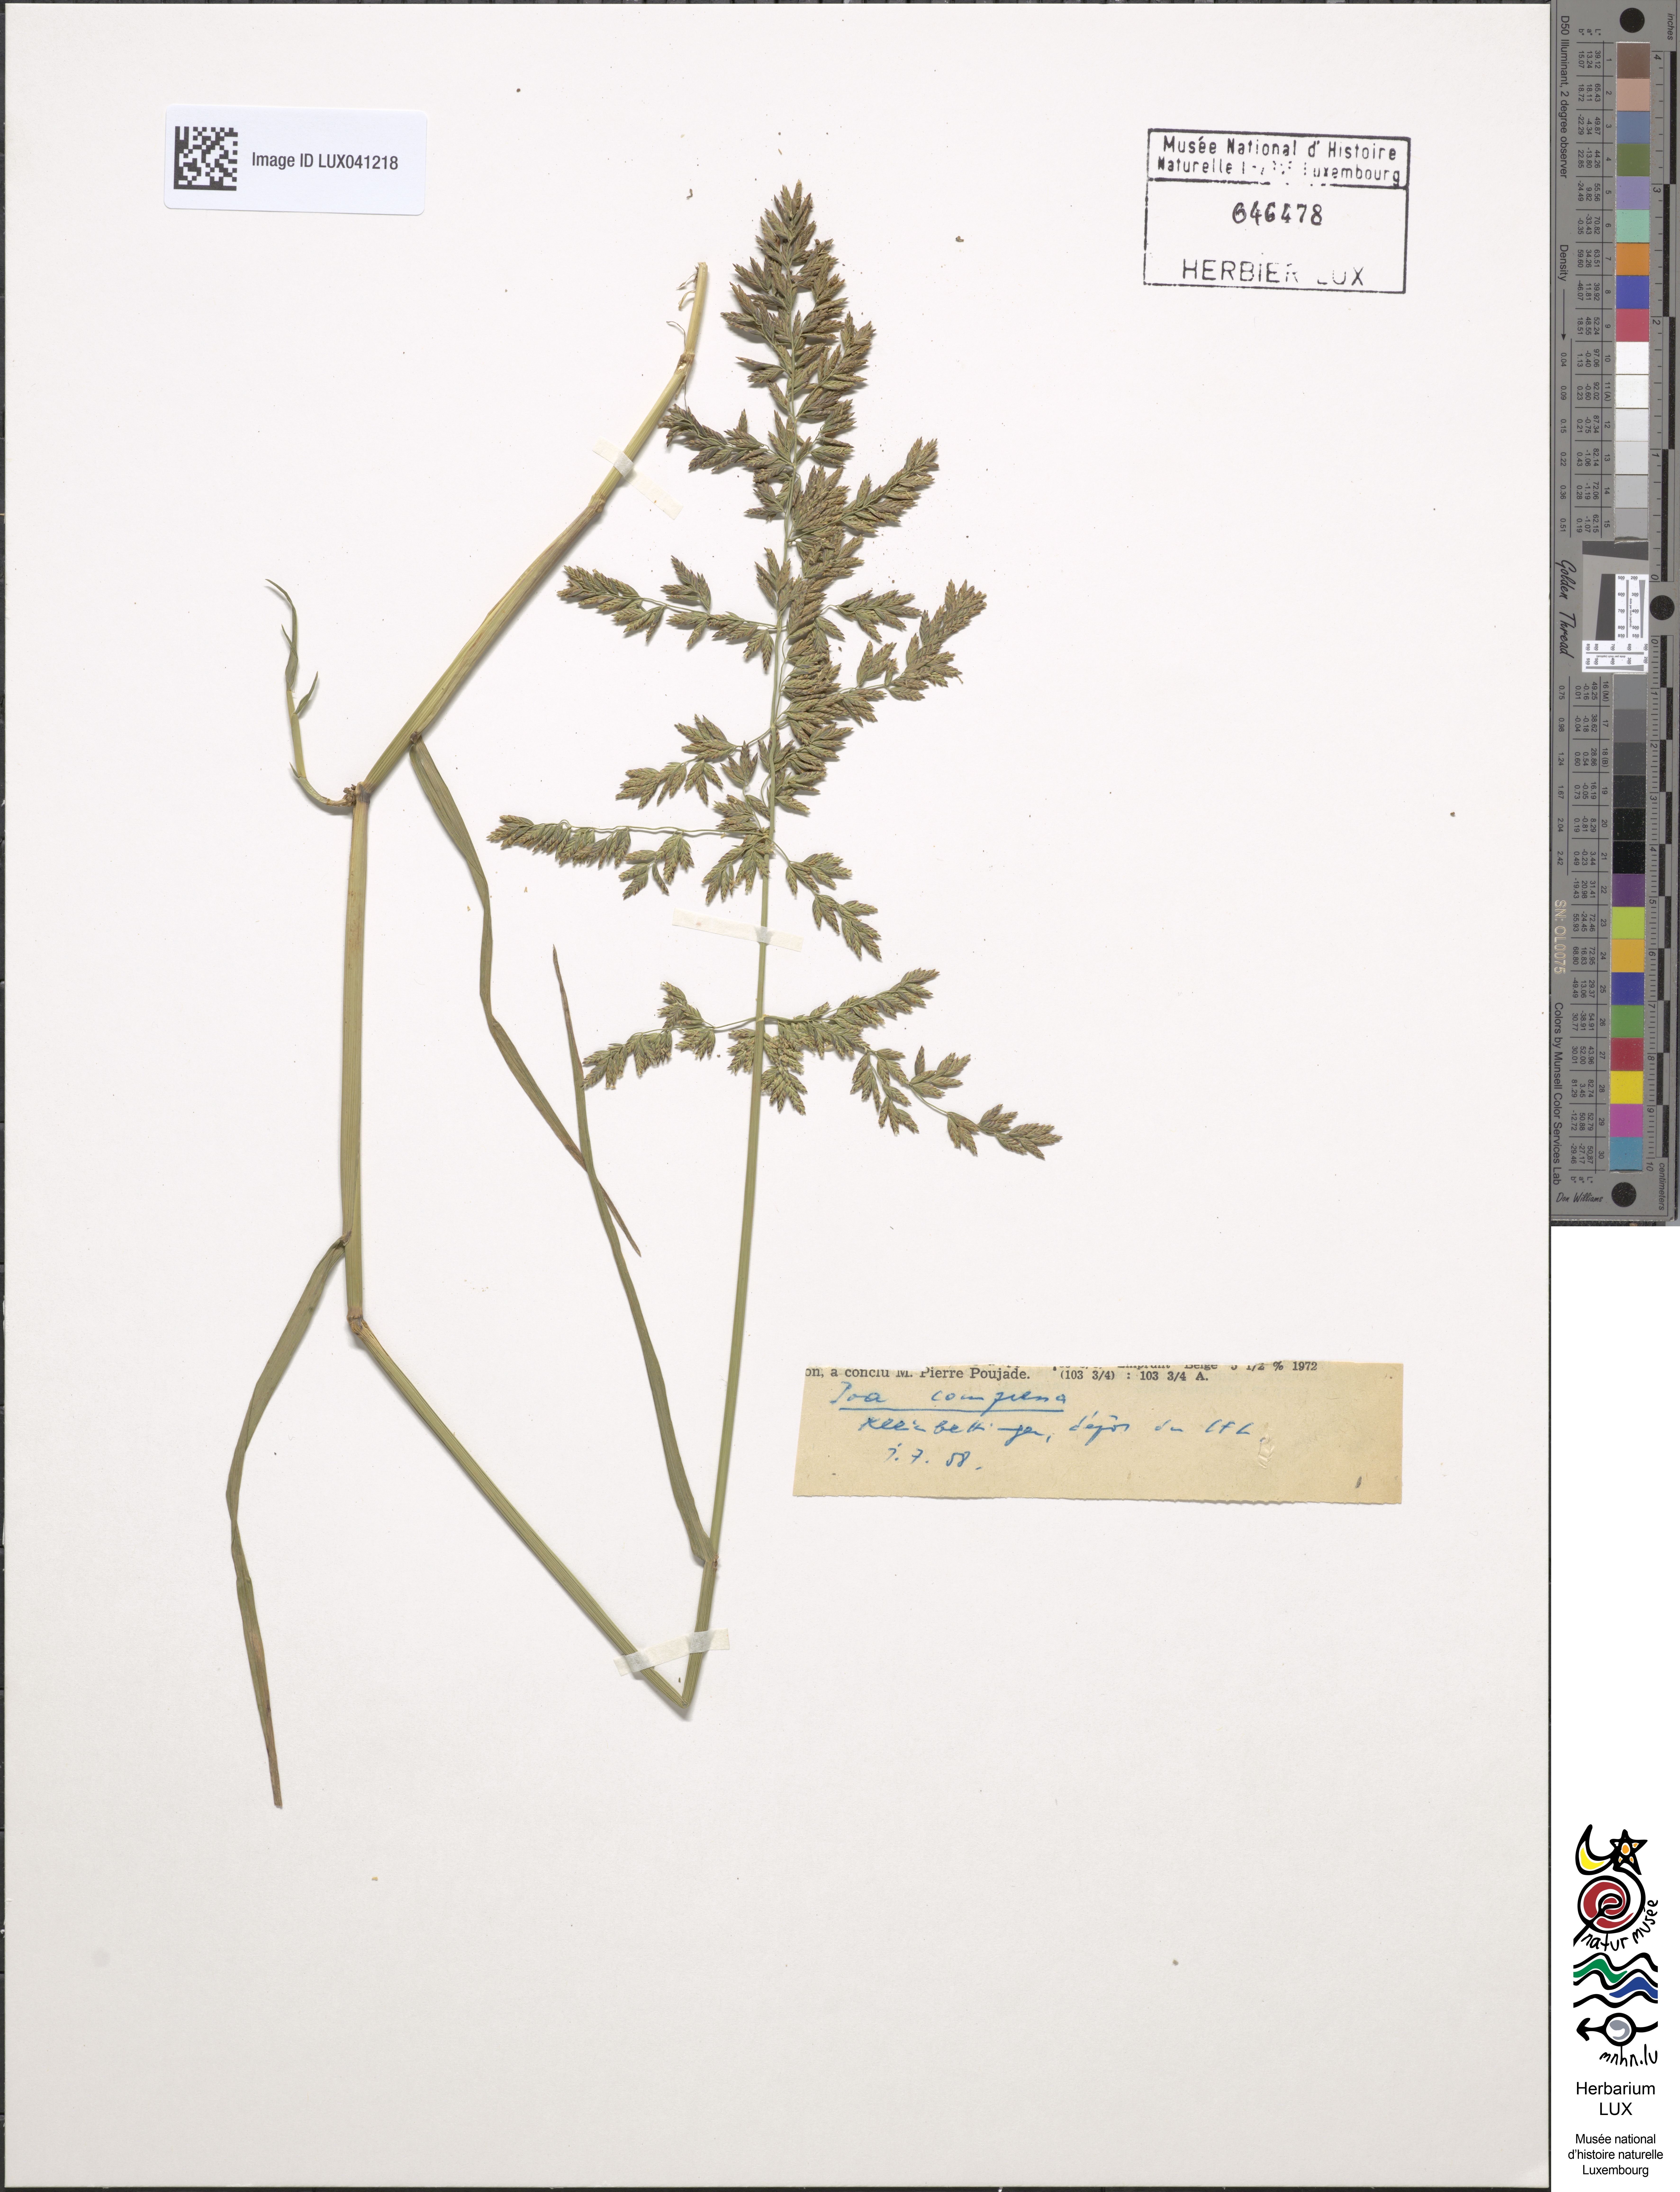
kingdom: Plantae
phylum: Tracheophyta
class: Liliopsida
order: Poales
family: Poaceae
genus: Poa
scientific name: Poa compressa
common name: Canada bluegrass
